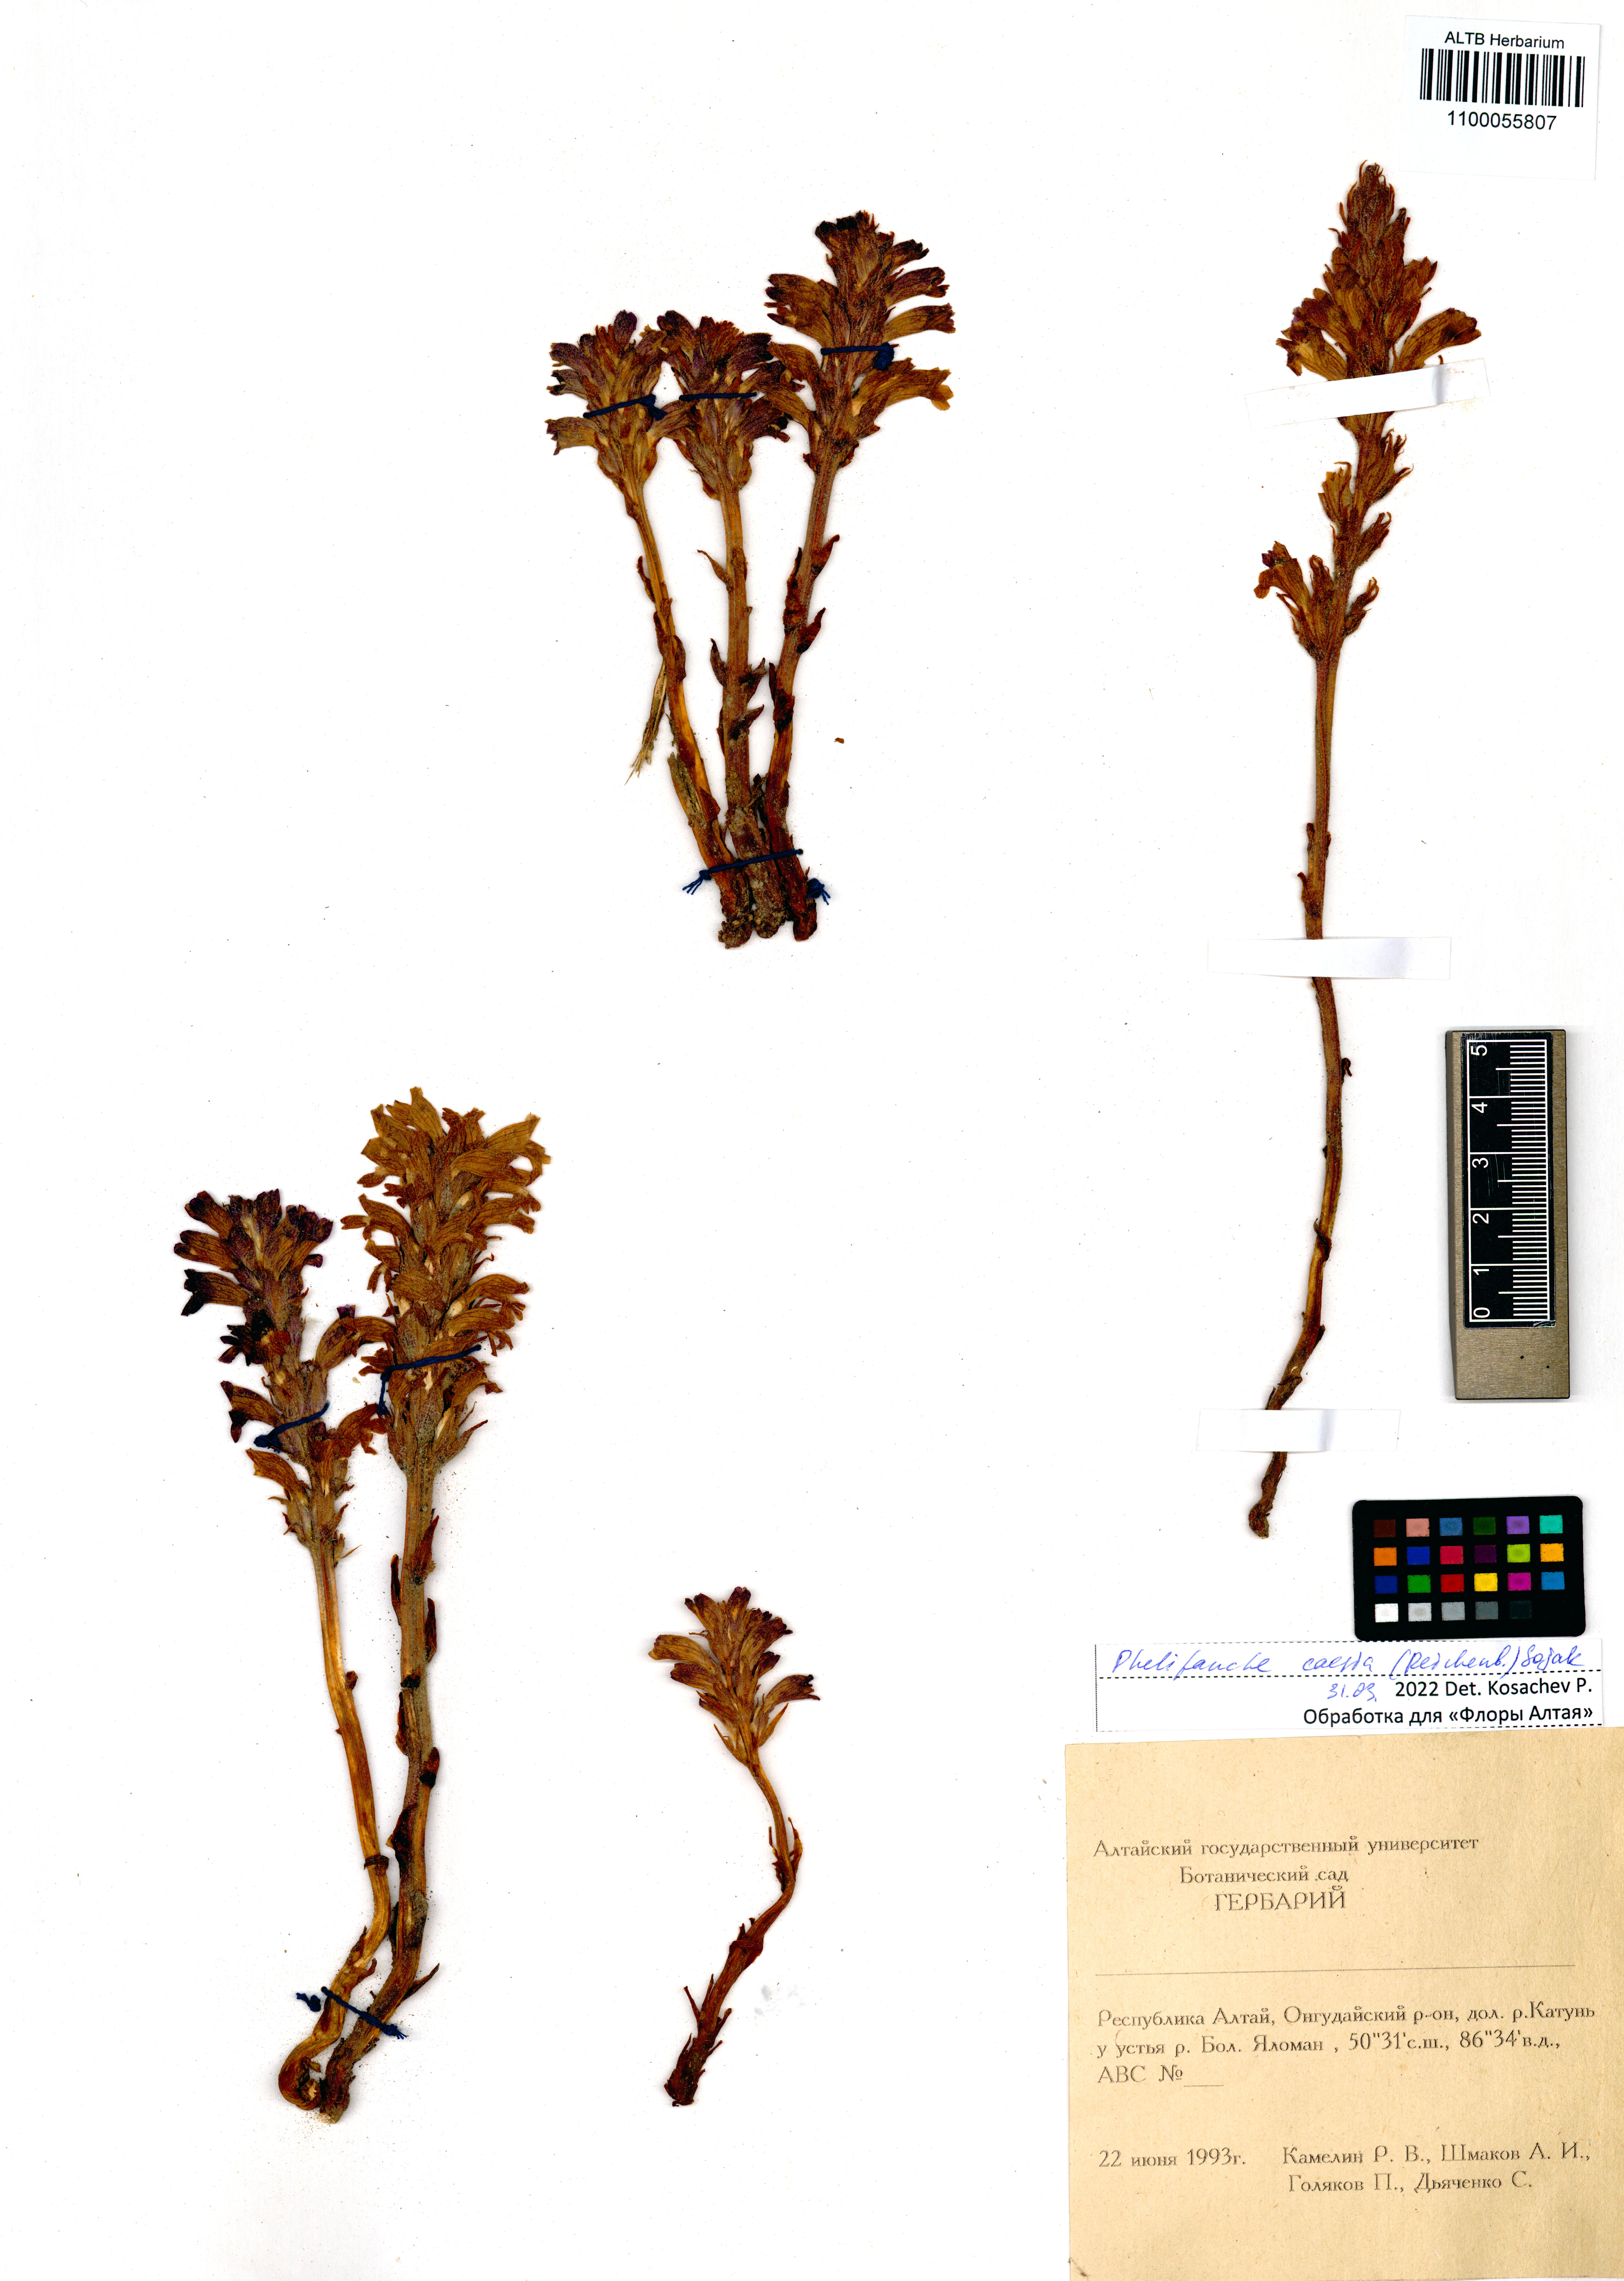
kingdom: Plantae
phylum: Tracheophyta
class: Magnoliopsida
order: Lamiales
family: Orobanchaceae
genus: Phelipanche
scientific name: Phelipanche caesia
